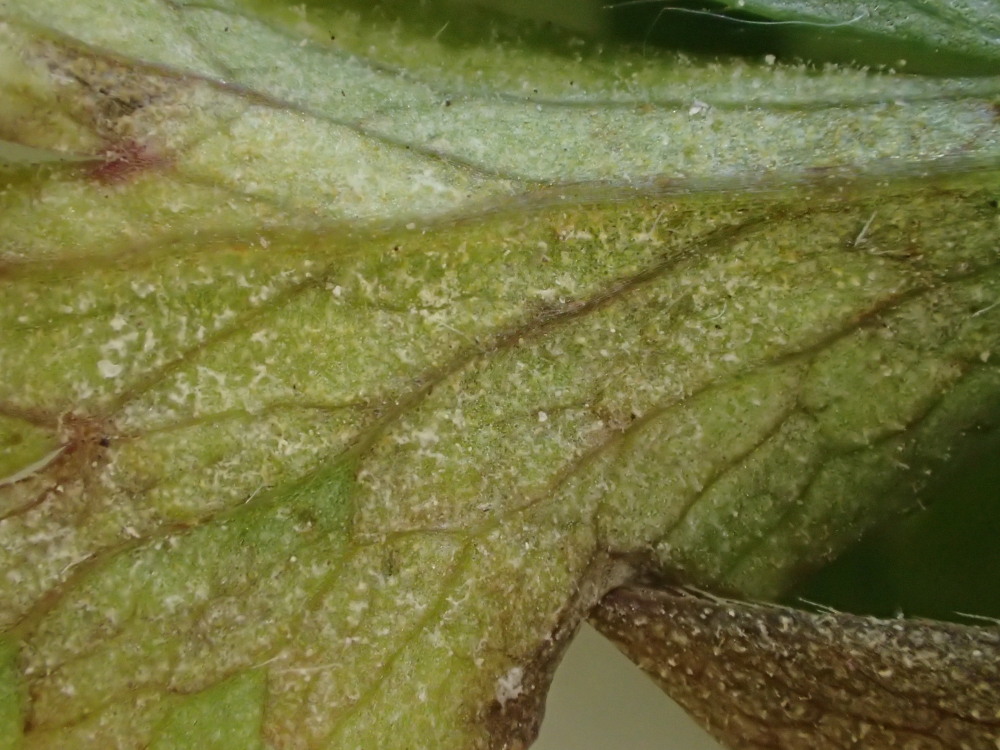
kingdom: Chromista
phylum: Oomycota
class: Peronosporea
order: Peronosporales
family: Peronosporaceae
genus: Plasmoverna
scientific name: Plasmoverna pygmaea
